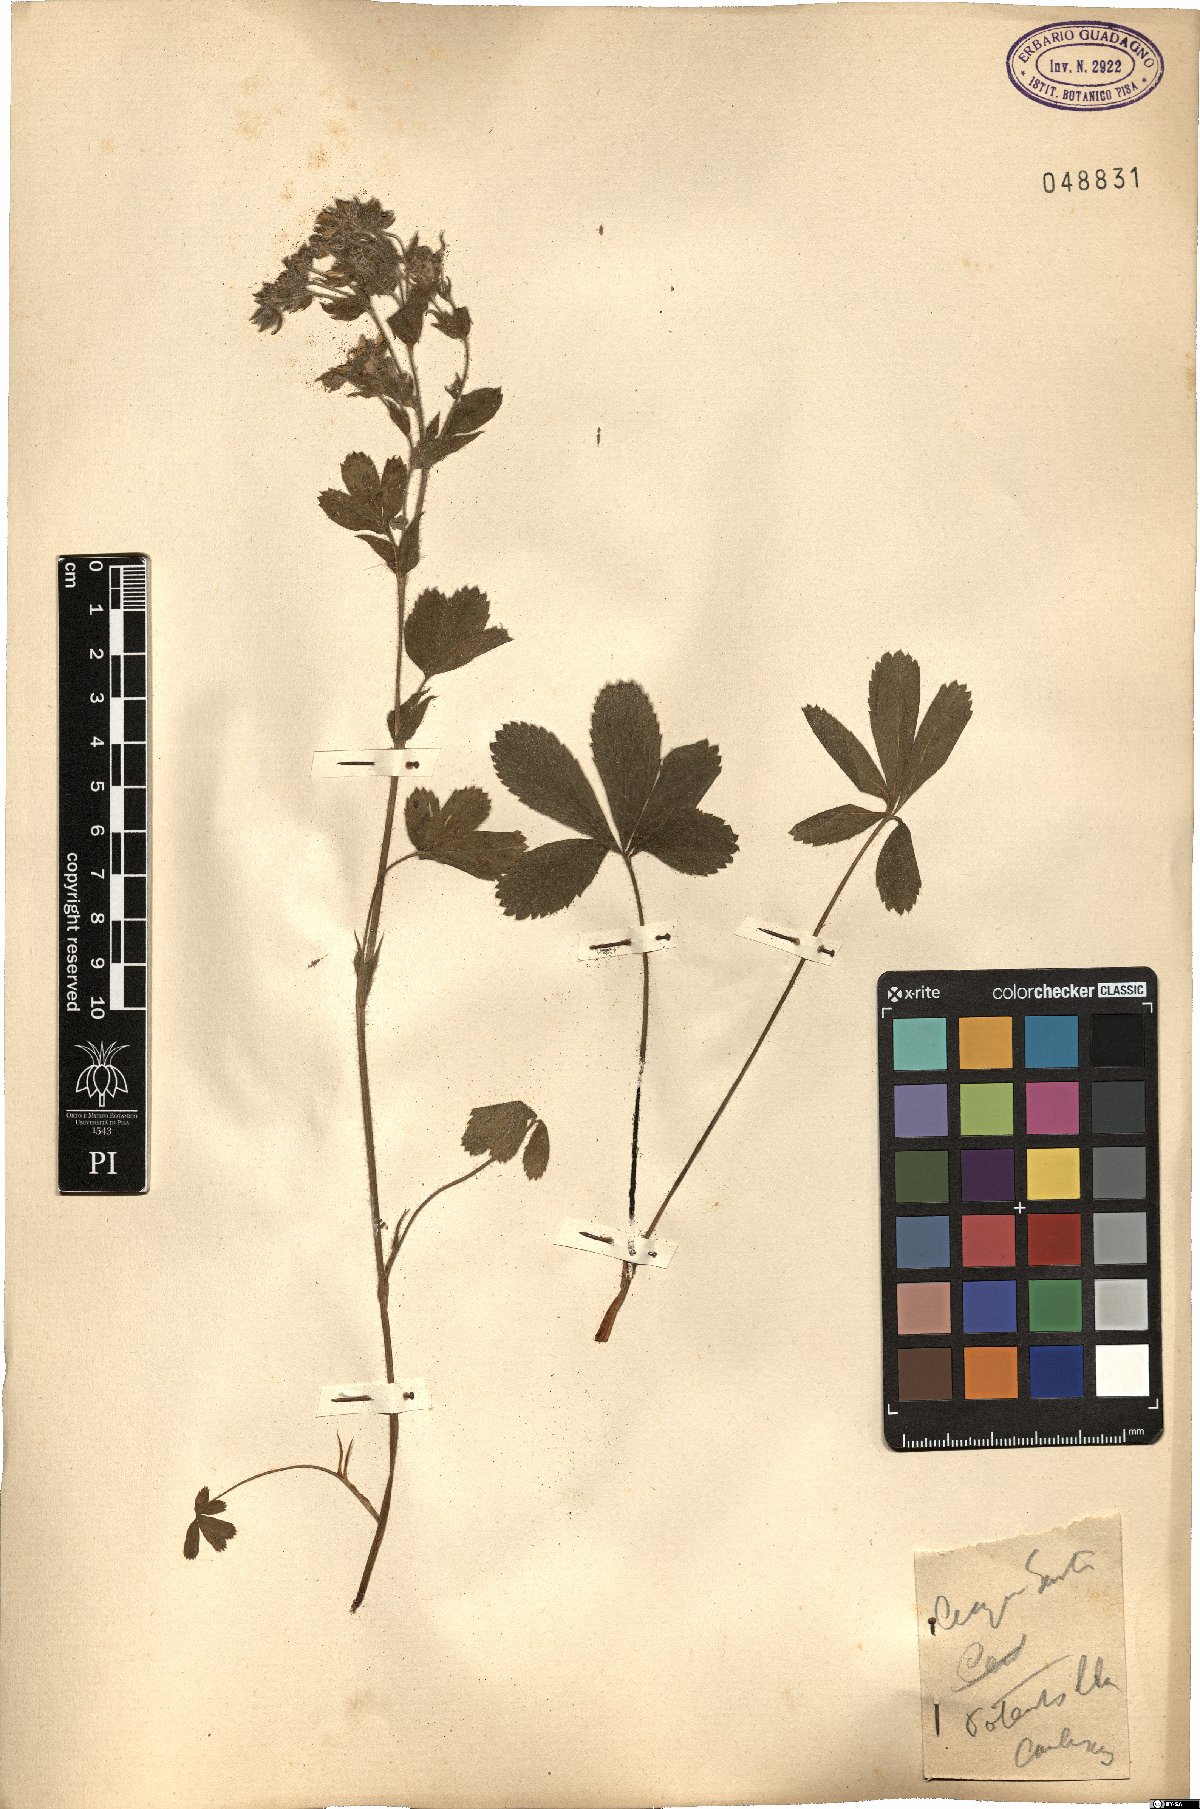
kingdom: Plantae
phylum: Tracheophyta
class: Magnoliopsida
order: Rosales
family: Rosaceae
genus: Potentilla
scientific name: Potentilla caulescens
